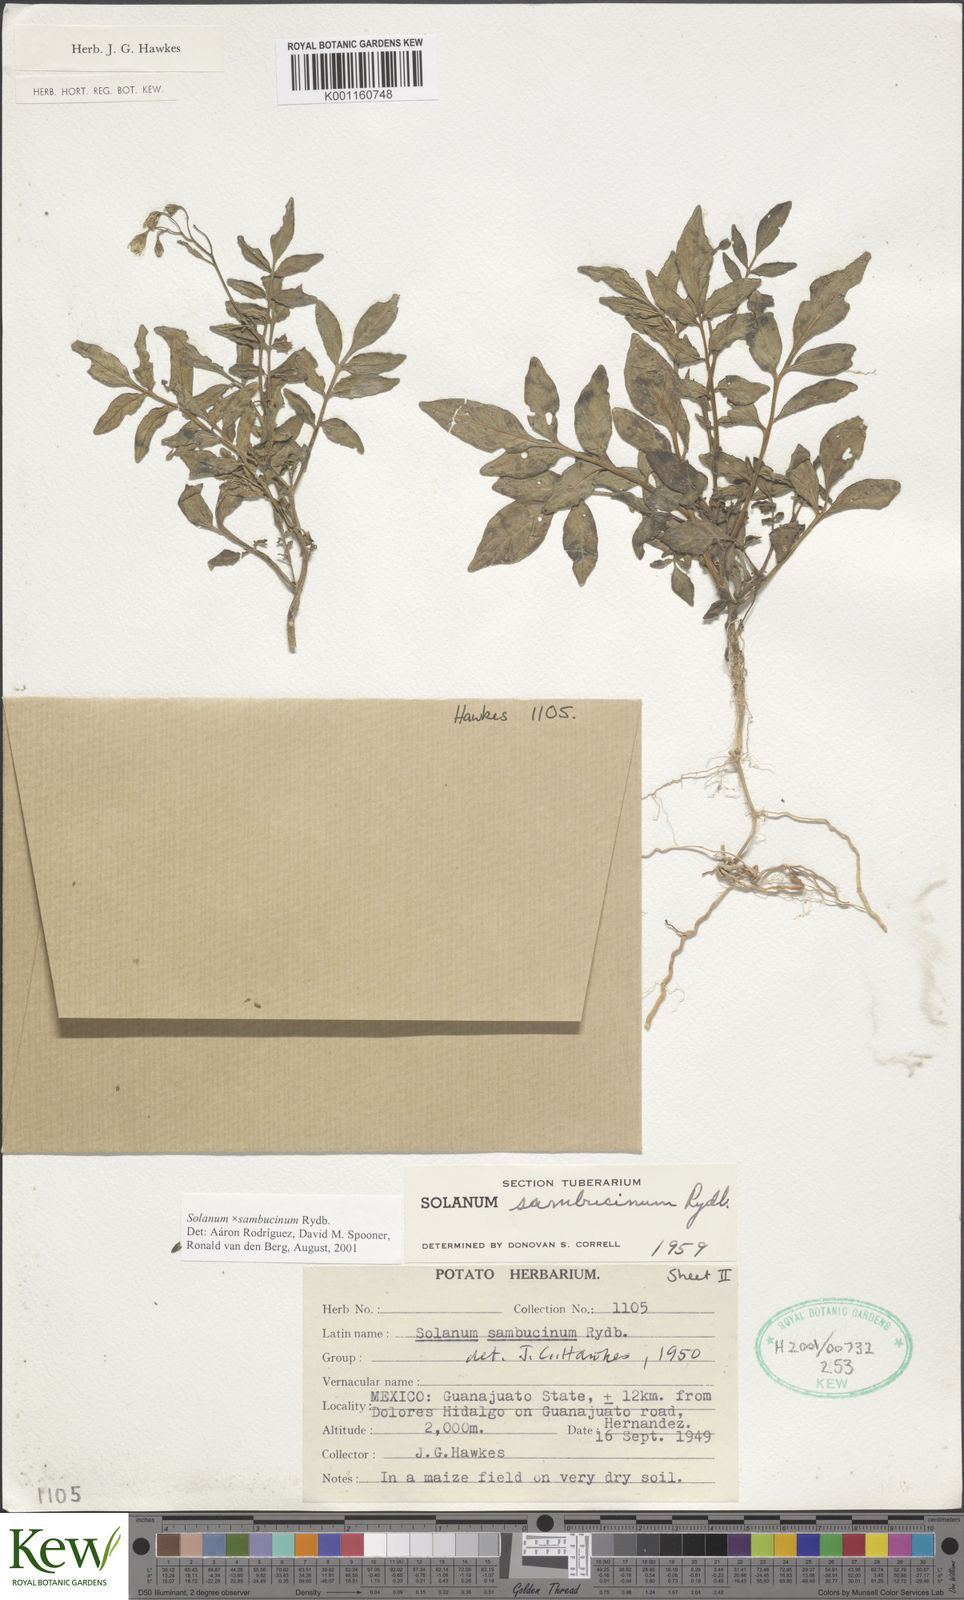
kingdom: Plantae
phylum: Tracheophyta
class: Magnoliopsida
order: Solanales
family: Solanaceae
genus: Solanum
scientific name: Solanum sambucinum
